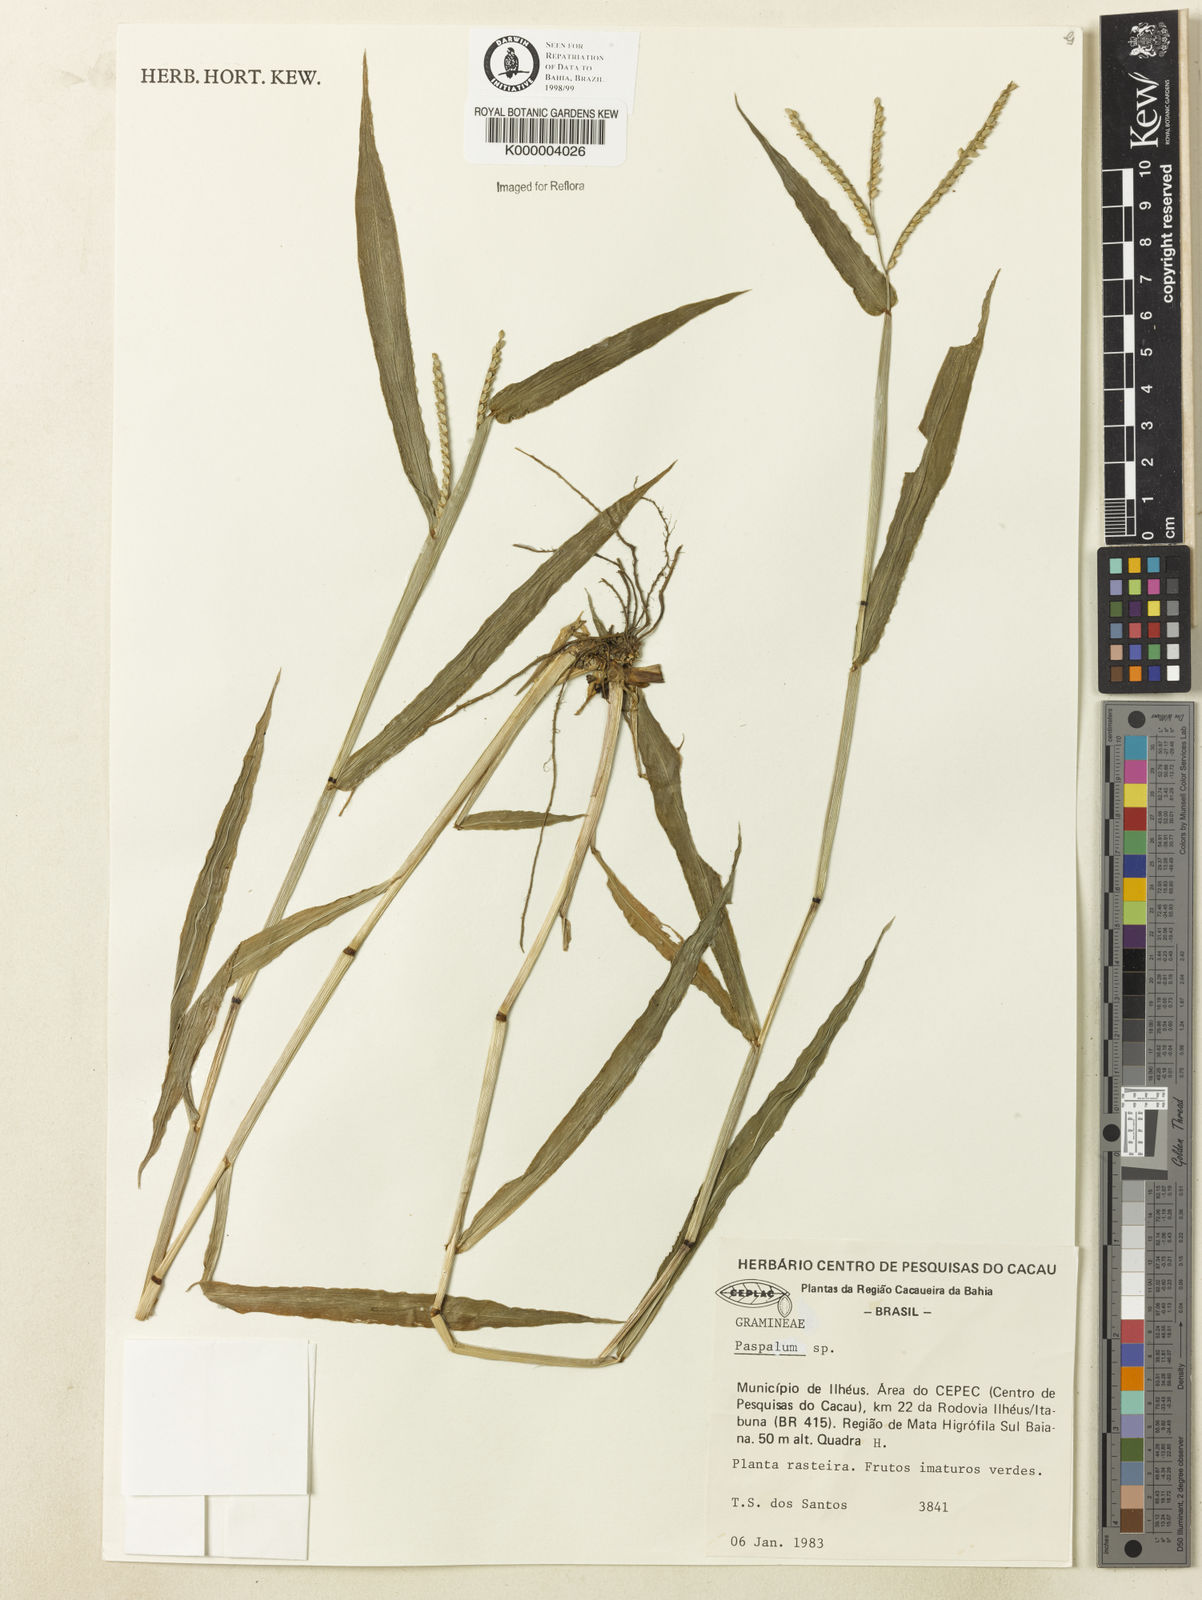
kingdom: Plantae
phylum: Tracheophyta
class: Liliopsida
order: Poales
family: Poaceae
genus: Paspalum
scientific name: Paspalum
